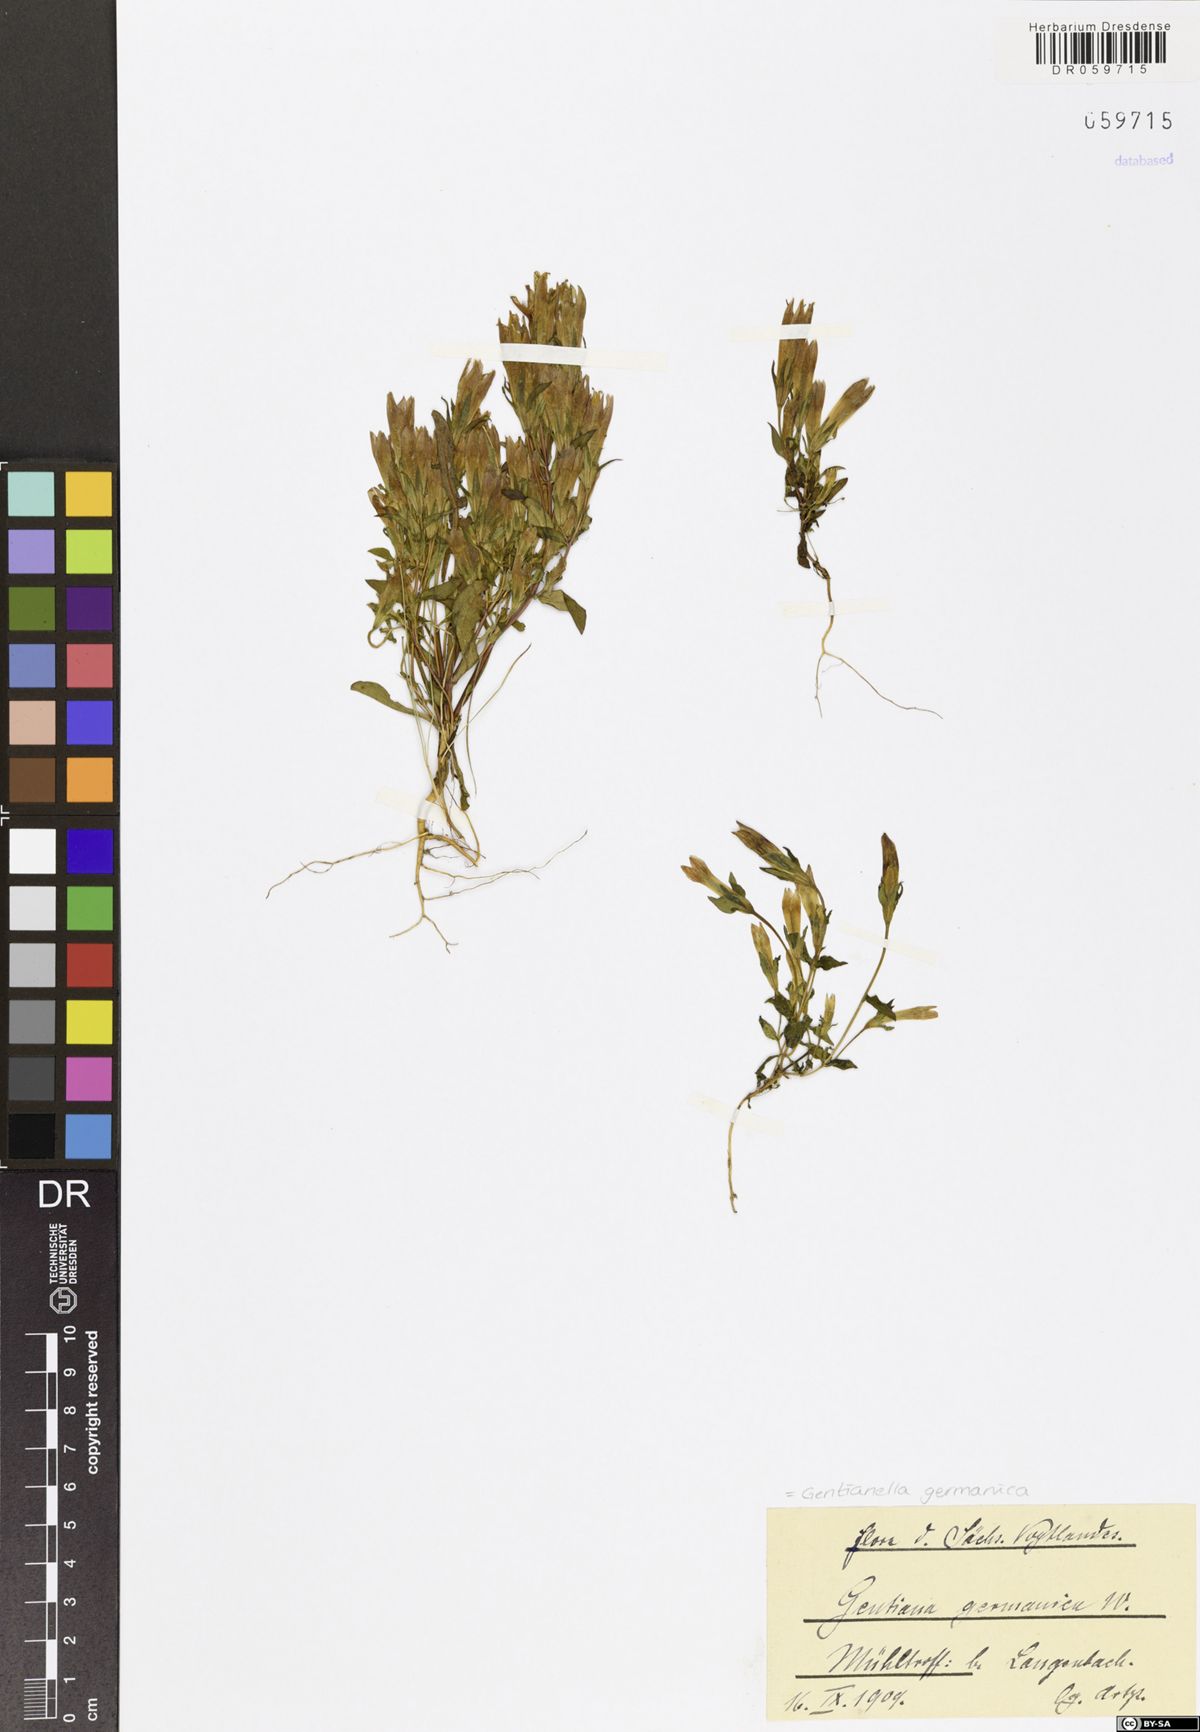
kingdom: Plantae
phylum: Tracheophyta
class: Magnoliopsida
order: Gentianales
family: Gentianaceae
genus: Gentianella
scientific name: Gentianella germanica
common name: Chiltern-gentian
